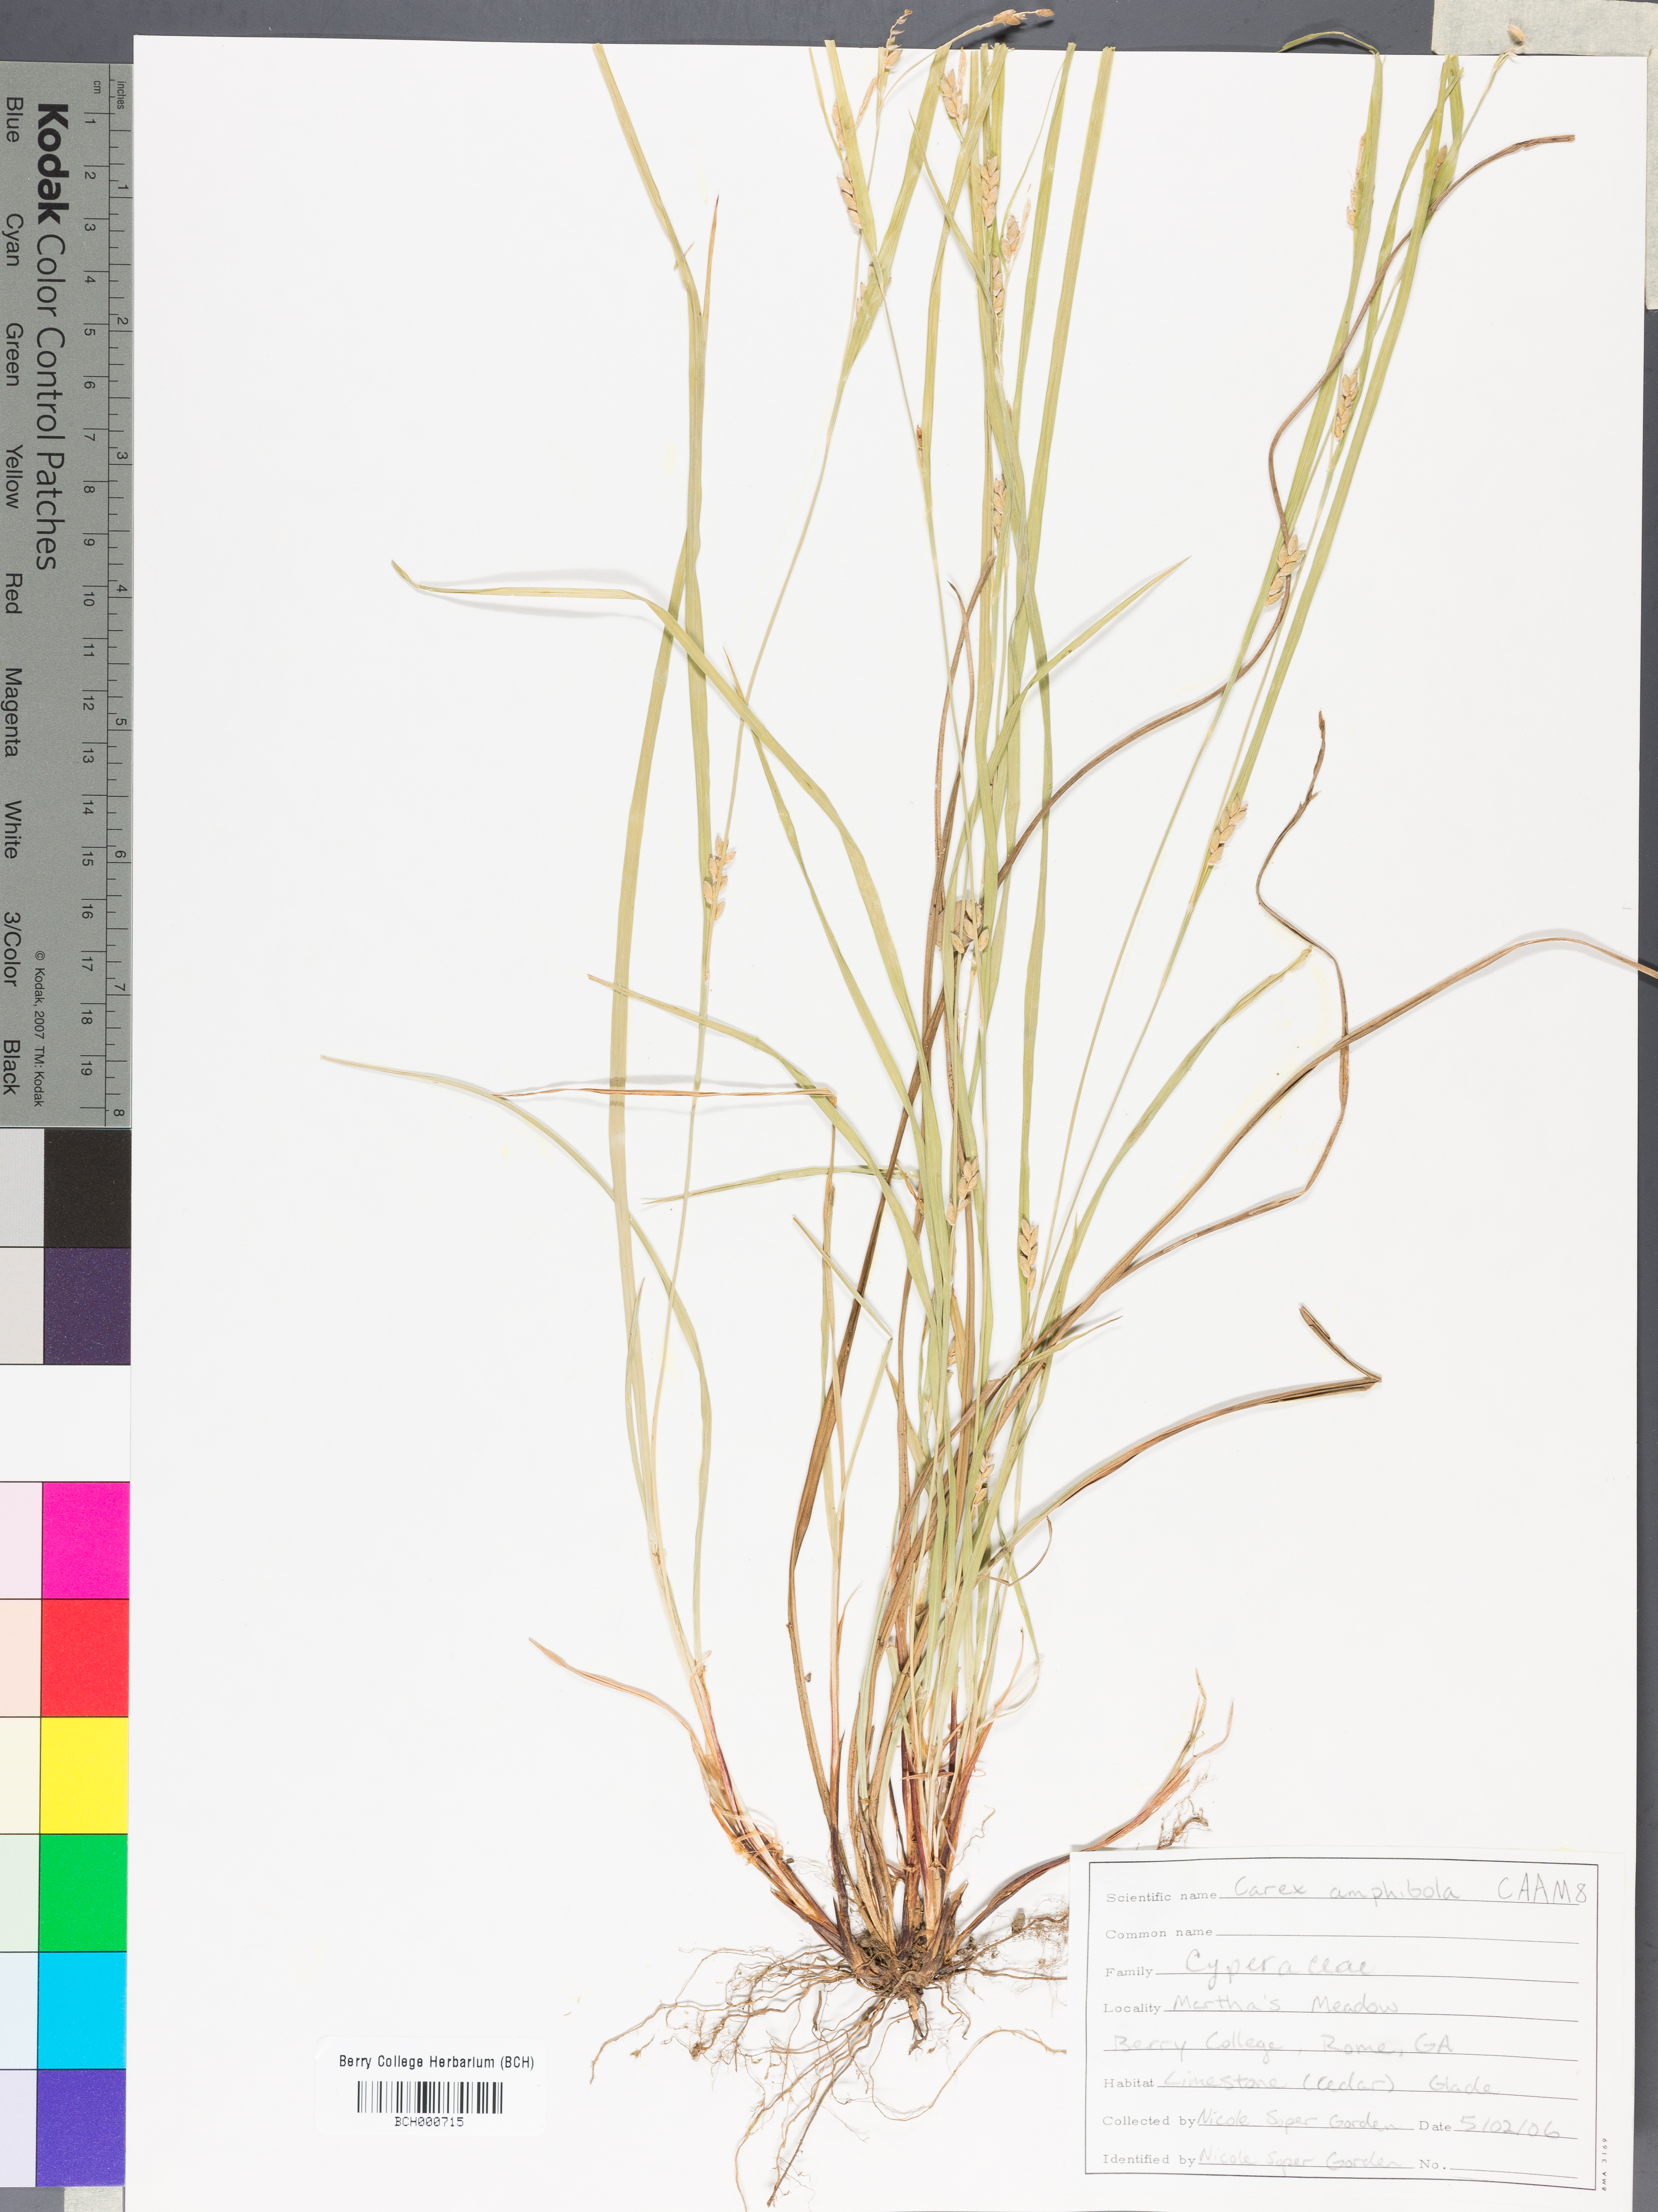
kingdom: Plantae
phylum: Tracheophyta
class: Liliopsida
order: Poales
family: Cyperaceae
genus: Carex
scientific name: Carex amphibola
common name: Amphibious sedge
